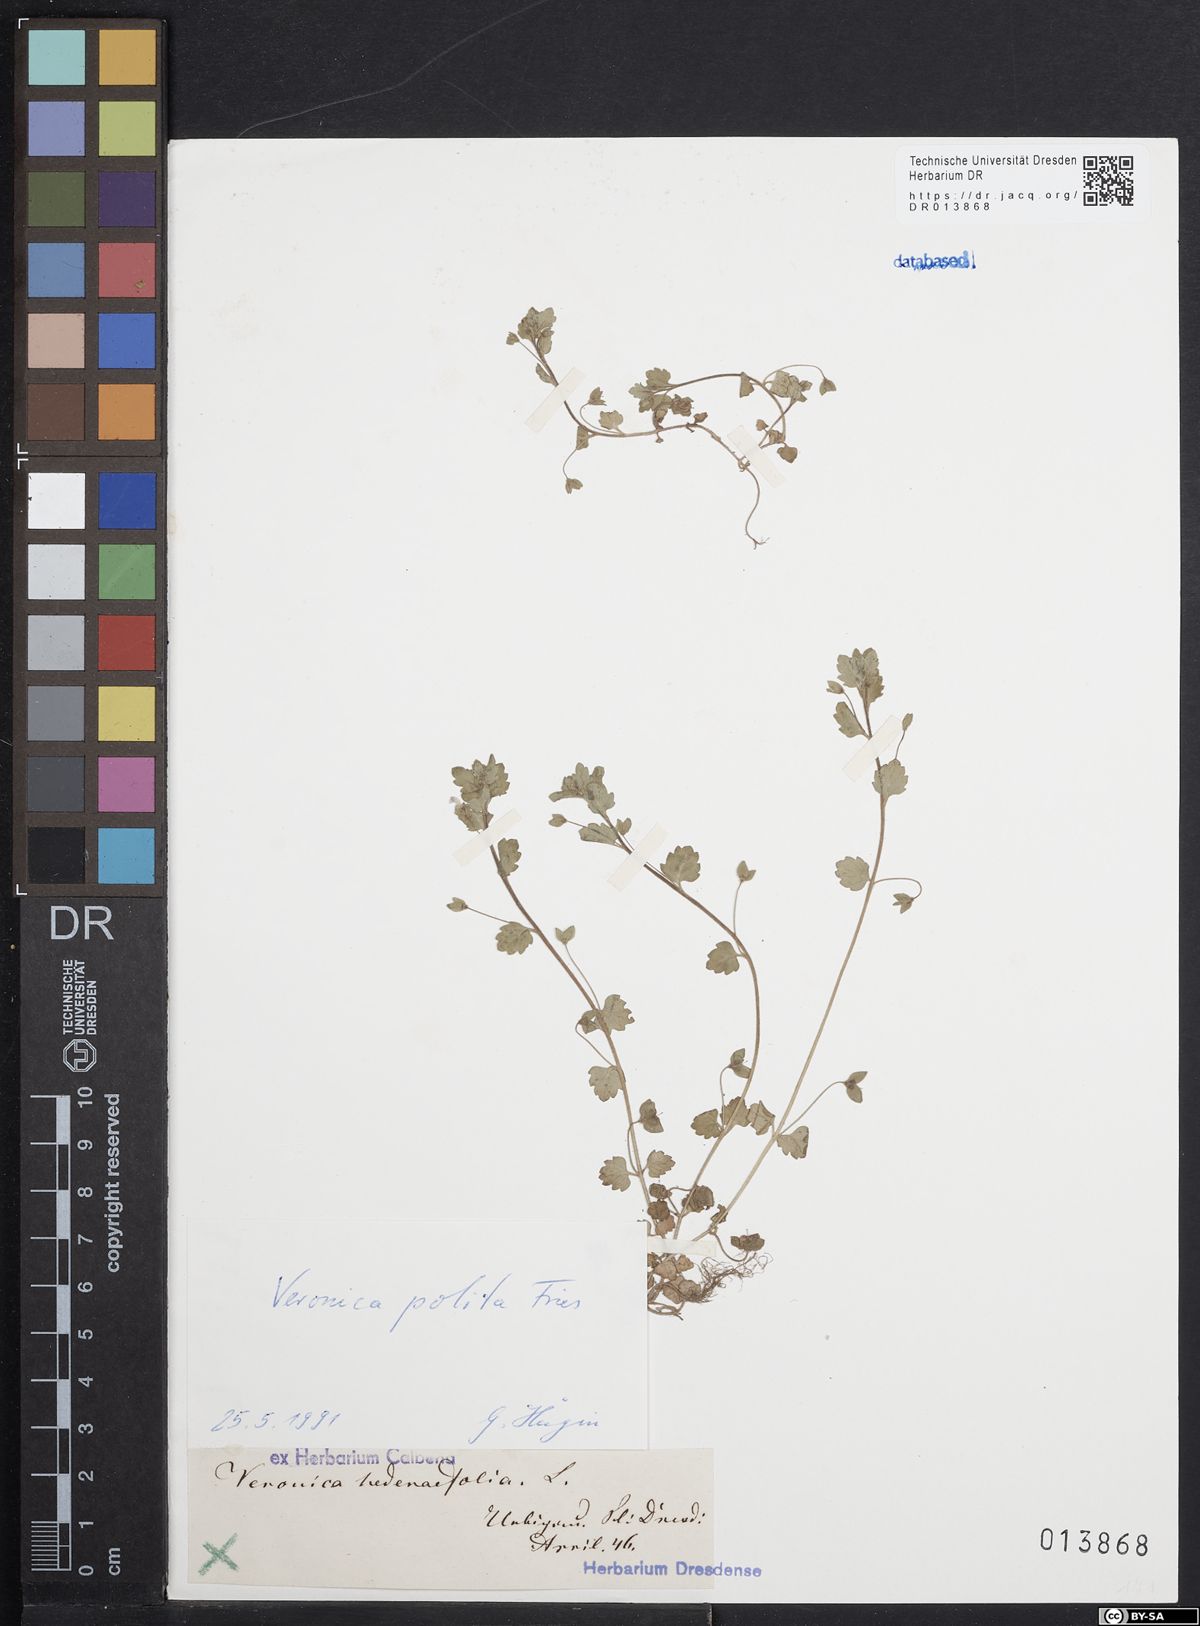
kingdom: Plantae
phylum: Tracheophyta
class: Magnoliopsida
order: Lamiales
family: Plantaginaceae
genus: Veronica
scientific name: Veronica polita
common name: Grey field-speedwell
